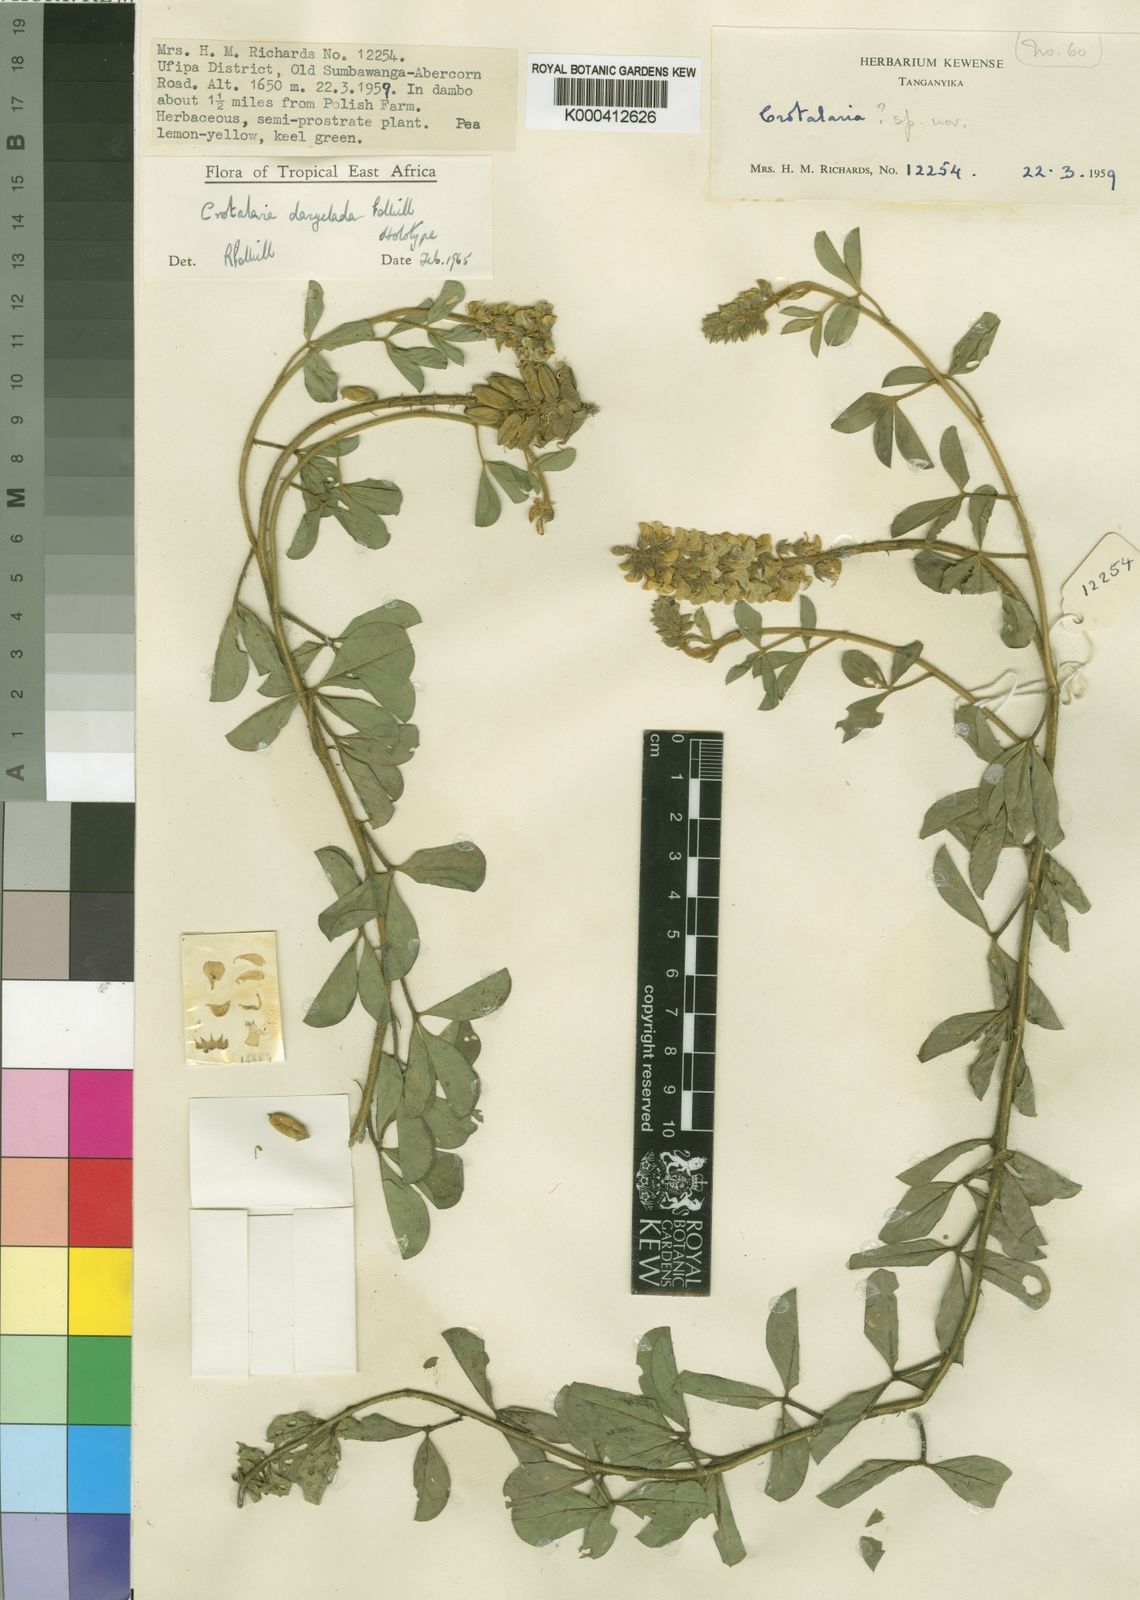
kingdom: Plantae
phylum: Tracheophyta
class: Magnoliopsida
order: Fabales
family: Fabaceae
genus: Crotalaria
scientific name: Crotalaria dasyclada
